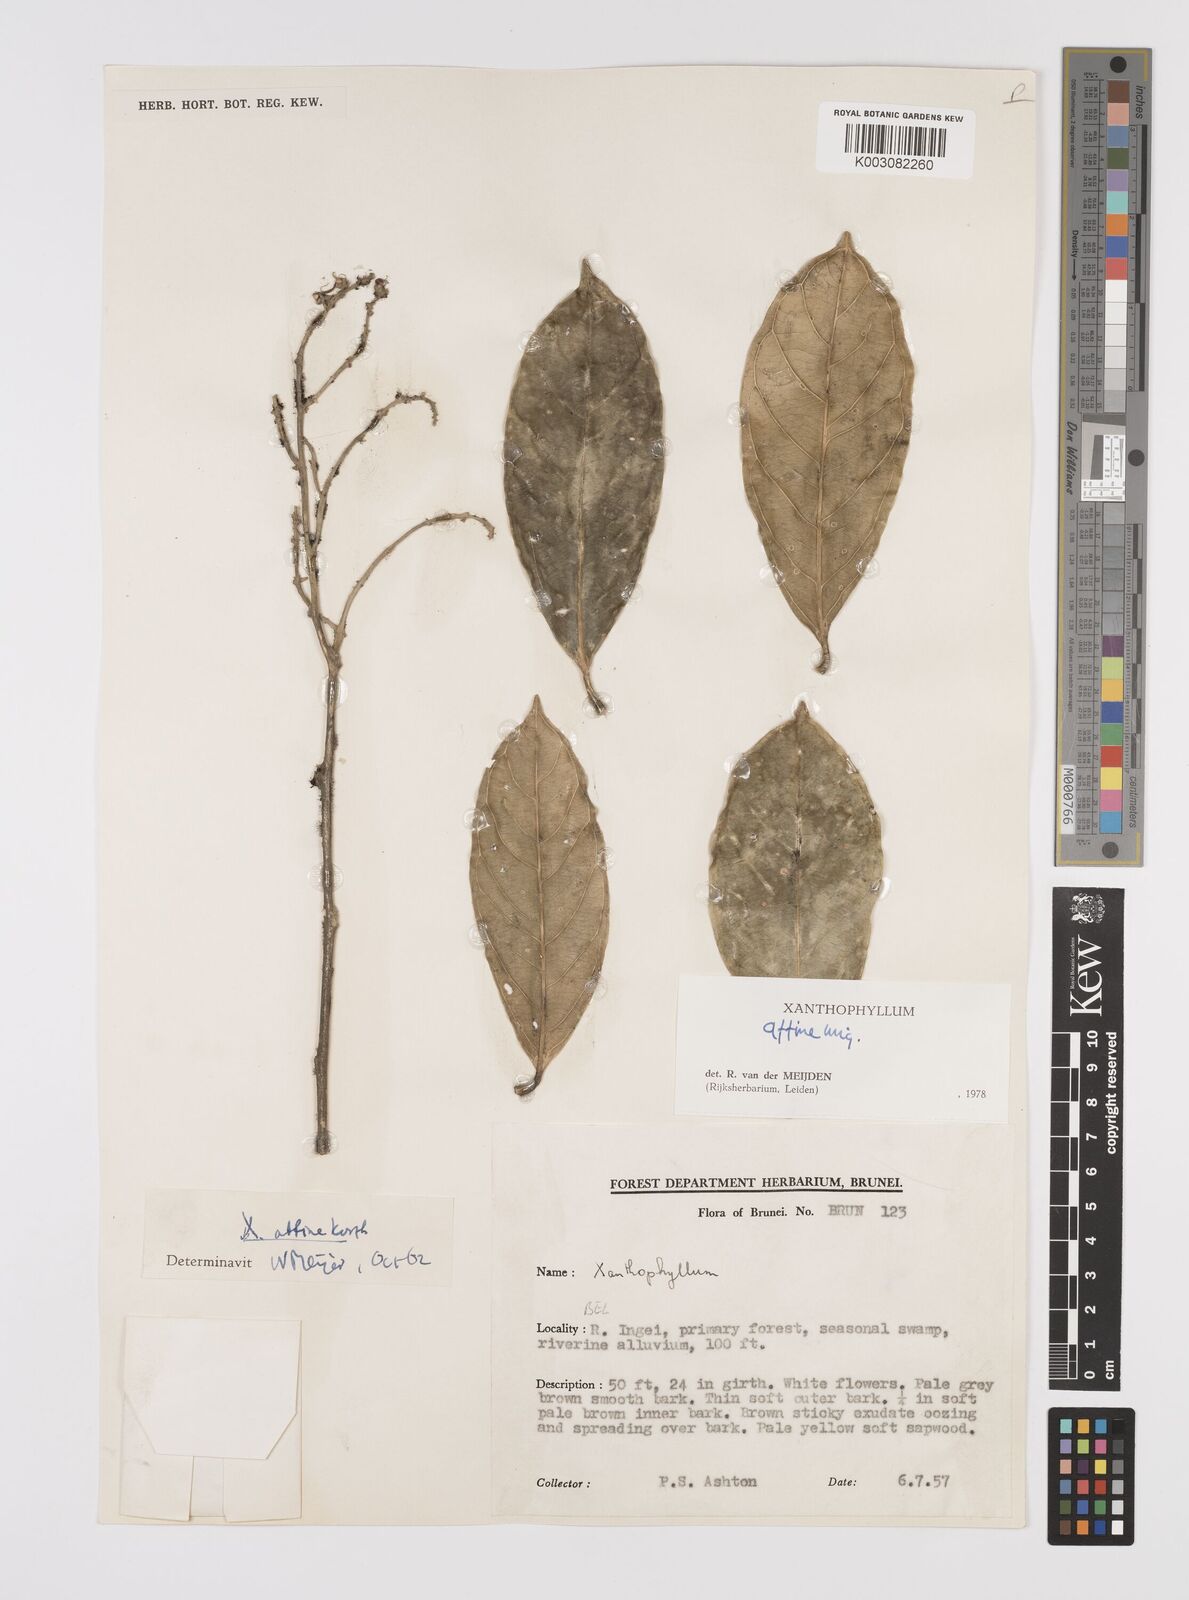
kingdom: Plantae
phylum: Tracheophyta
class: Magnoliopsida
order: Fabales
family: Polygalaceae
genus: Xanthophyllum
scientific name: Xanthophyllum flavescens
